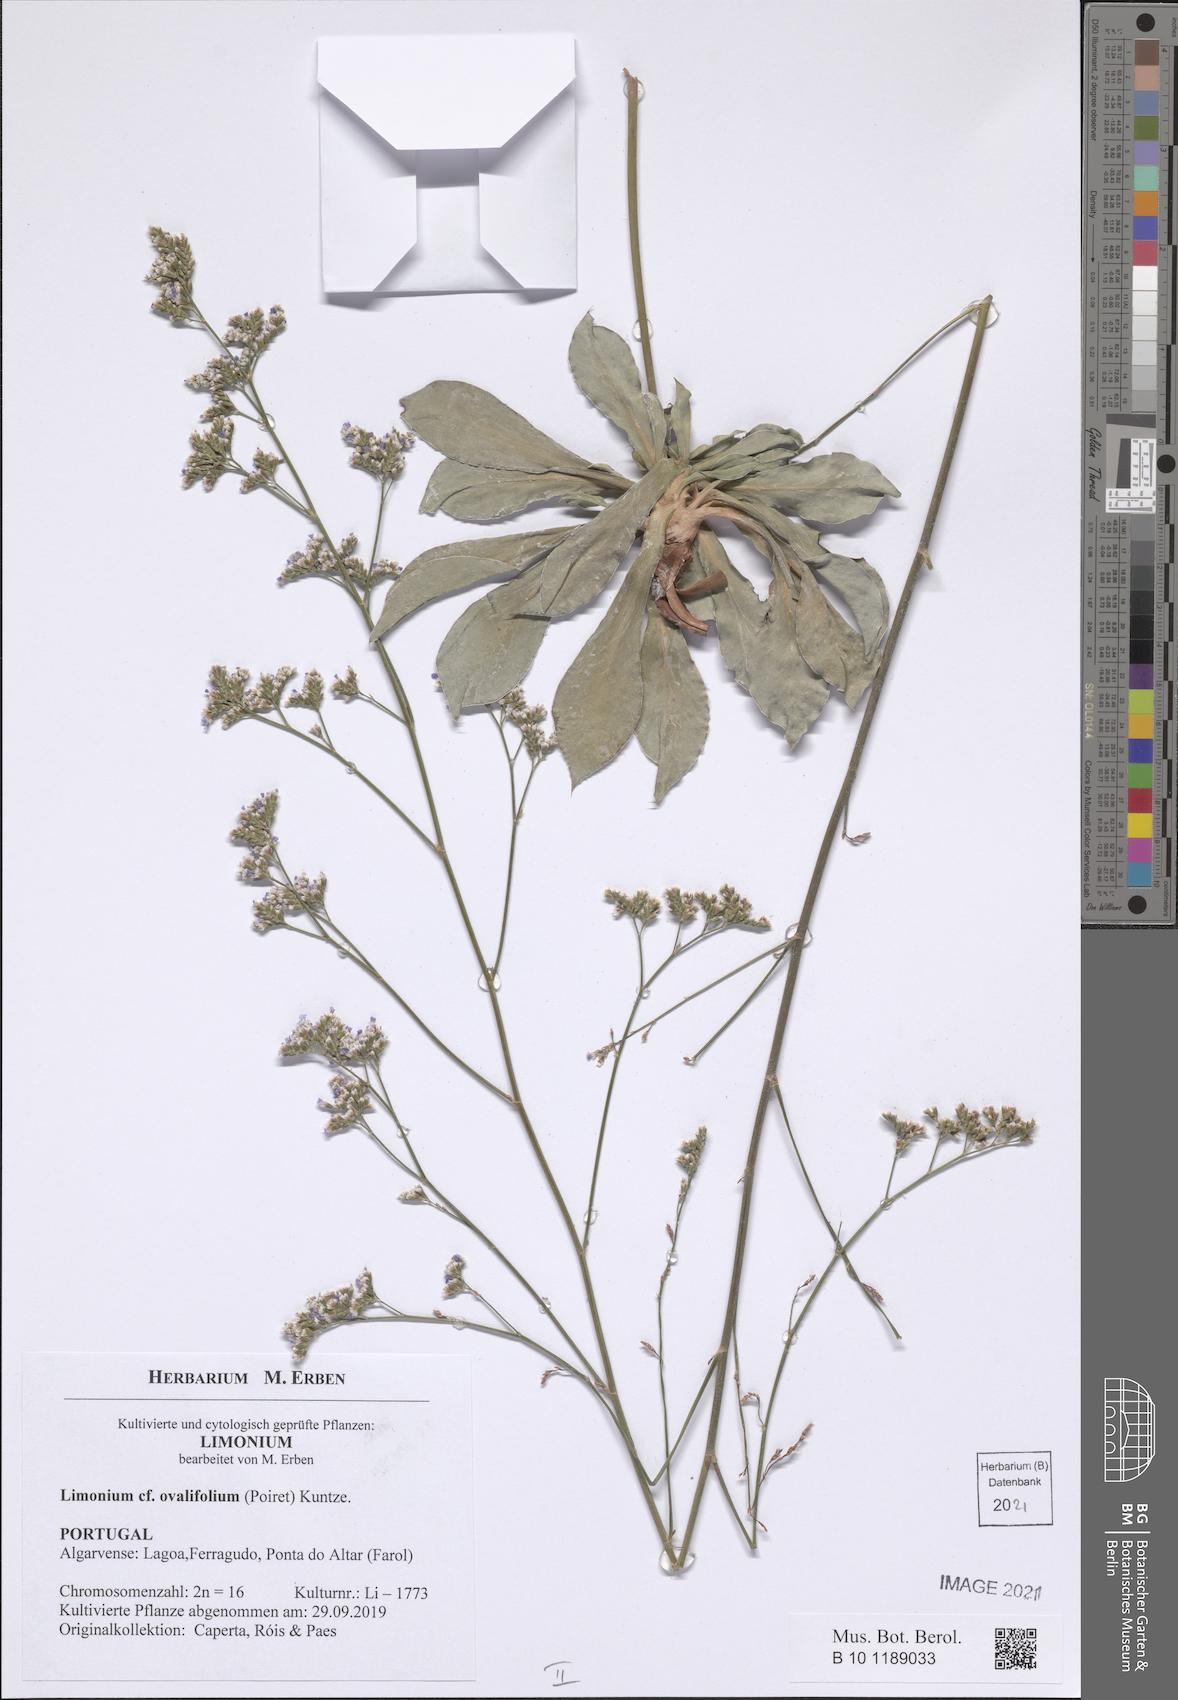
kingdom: Plantae
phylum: Tracheophyta
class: Magnoliopsida
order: Caryophyllales
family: Plumbaginaceae
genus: Limonium
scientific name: Limonium ovalifolium
